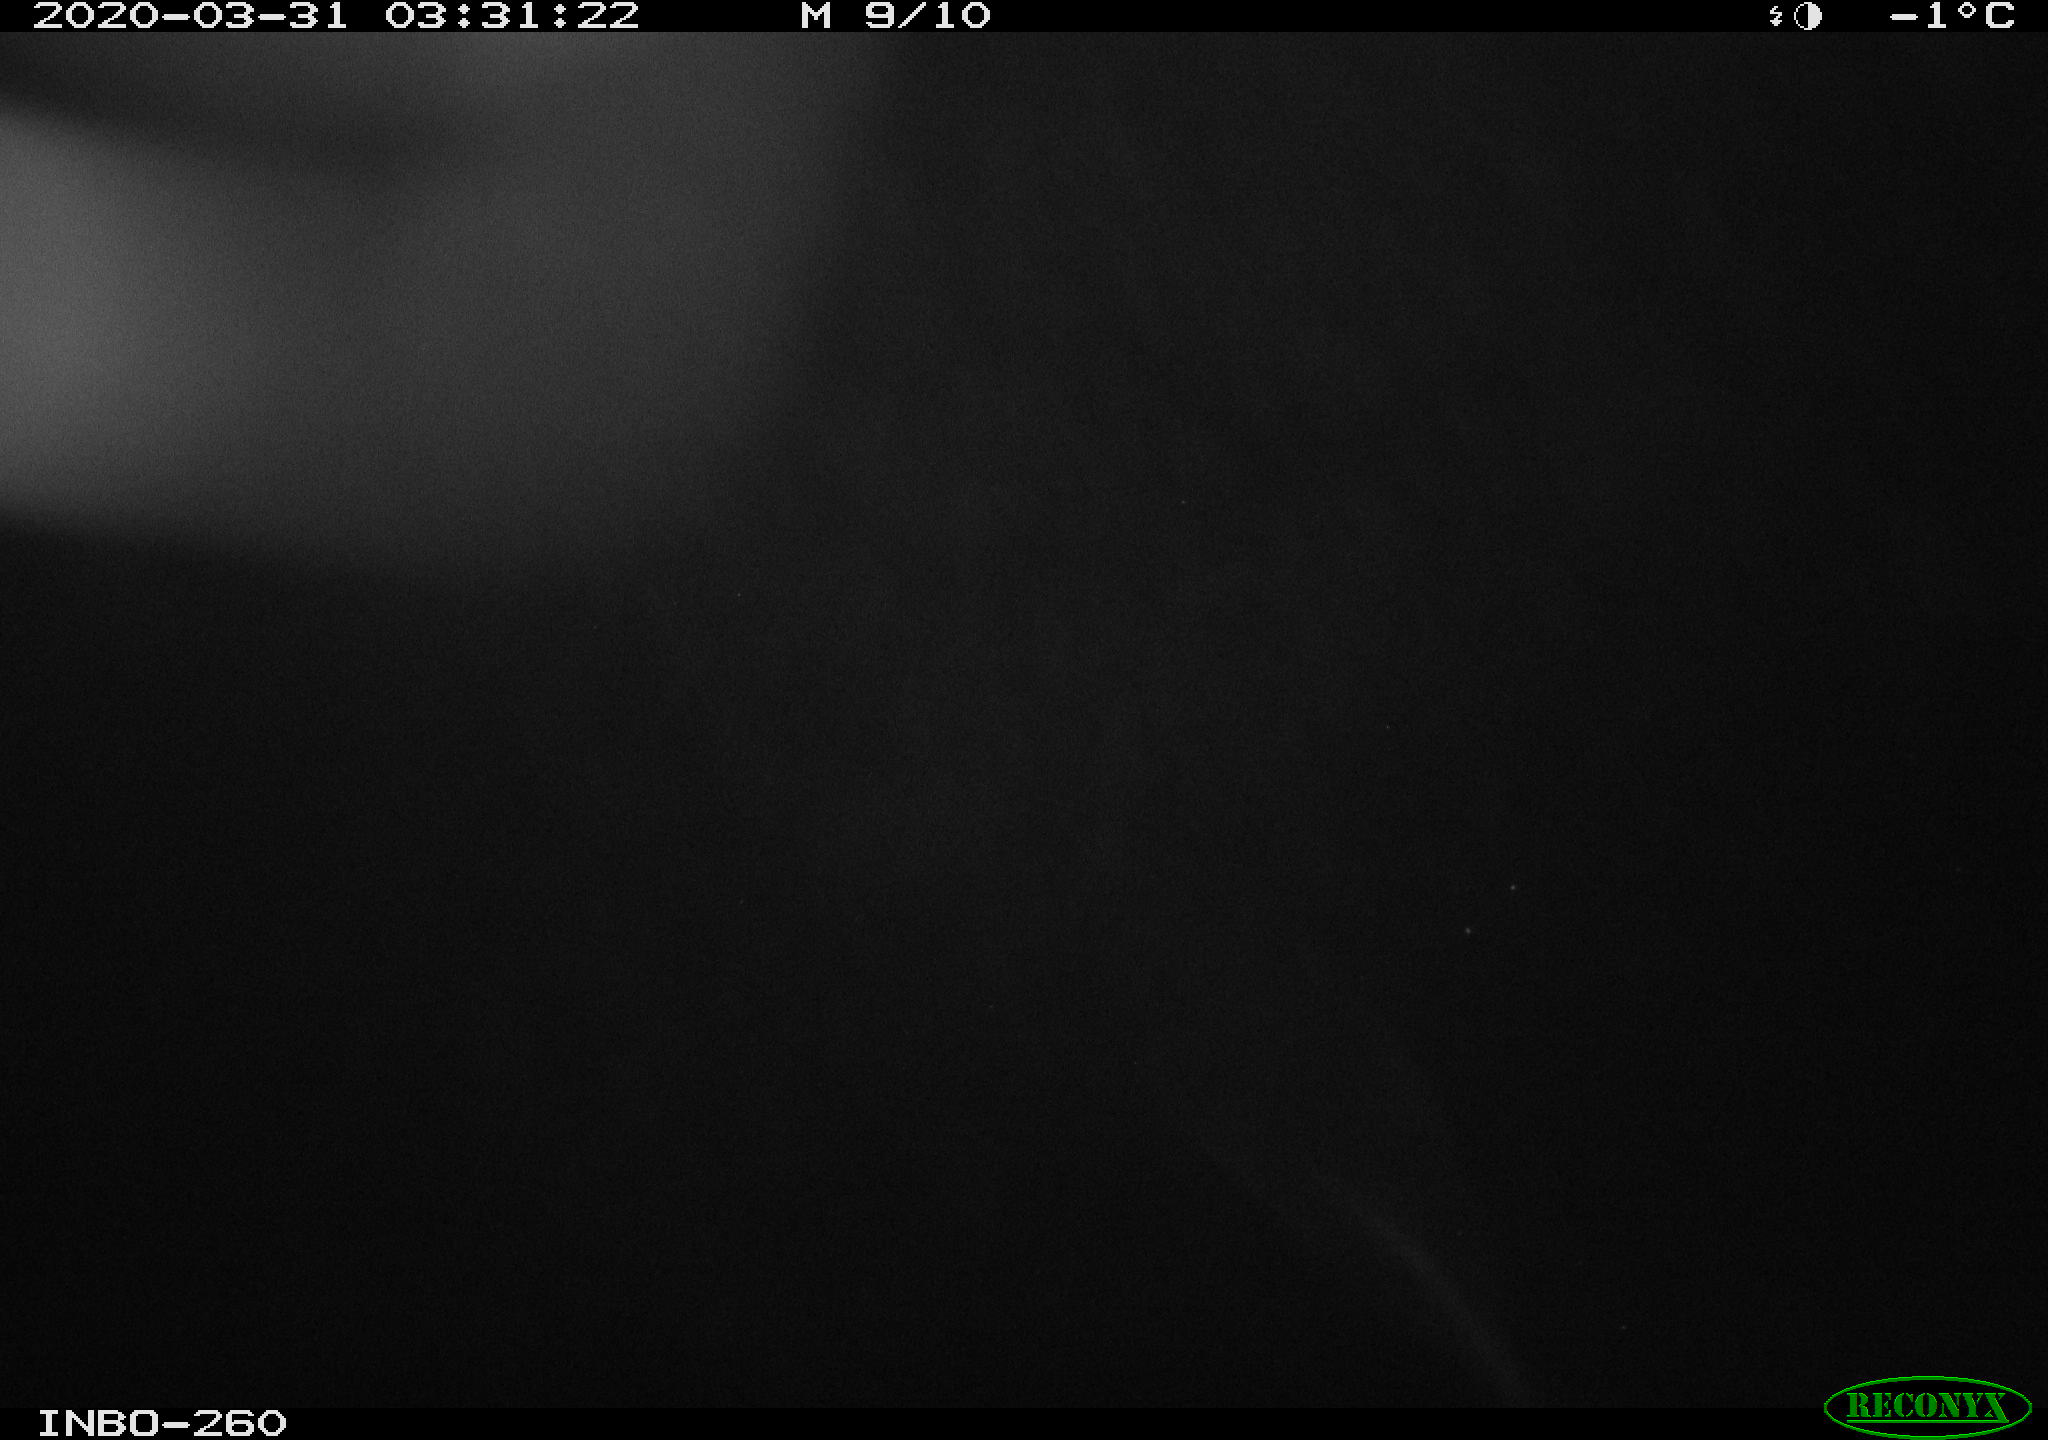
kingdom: Animalia
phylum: Chordata
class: Aves
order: Anseriformes
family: Anatidae
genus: Anas
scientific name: Anas platyrhynchos
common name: Mallard
